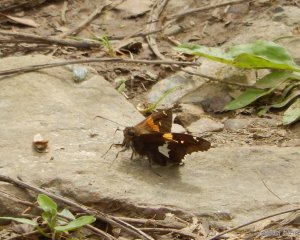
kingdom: Animalia
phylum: Arthropoda
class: Insecta
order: Lepidoptera
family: Hesperiidae
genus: Epargyreus
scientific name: Epargyreus clarus
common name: Silver-spotted Skipper
